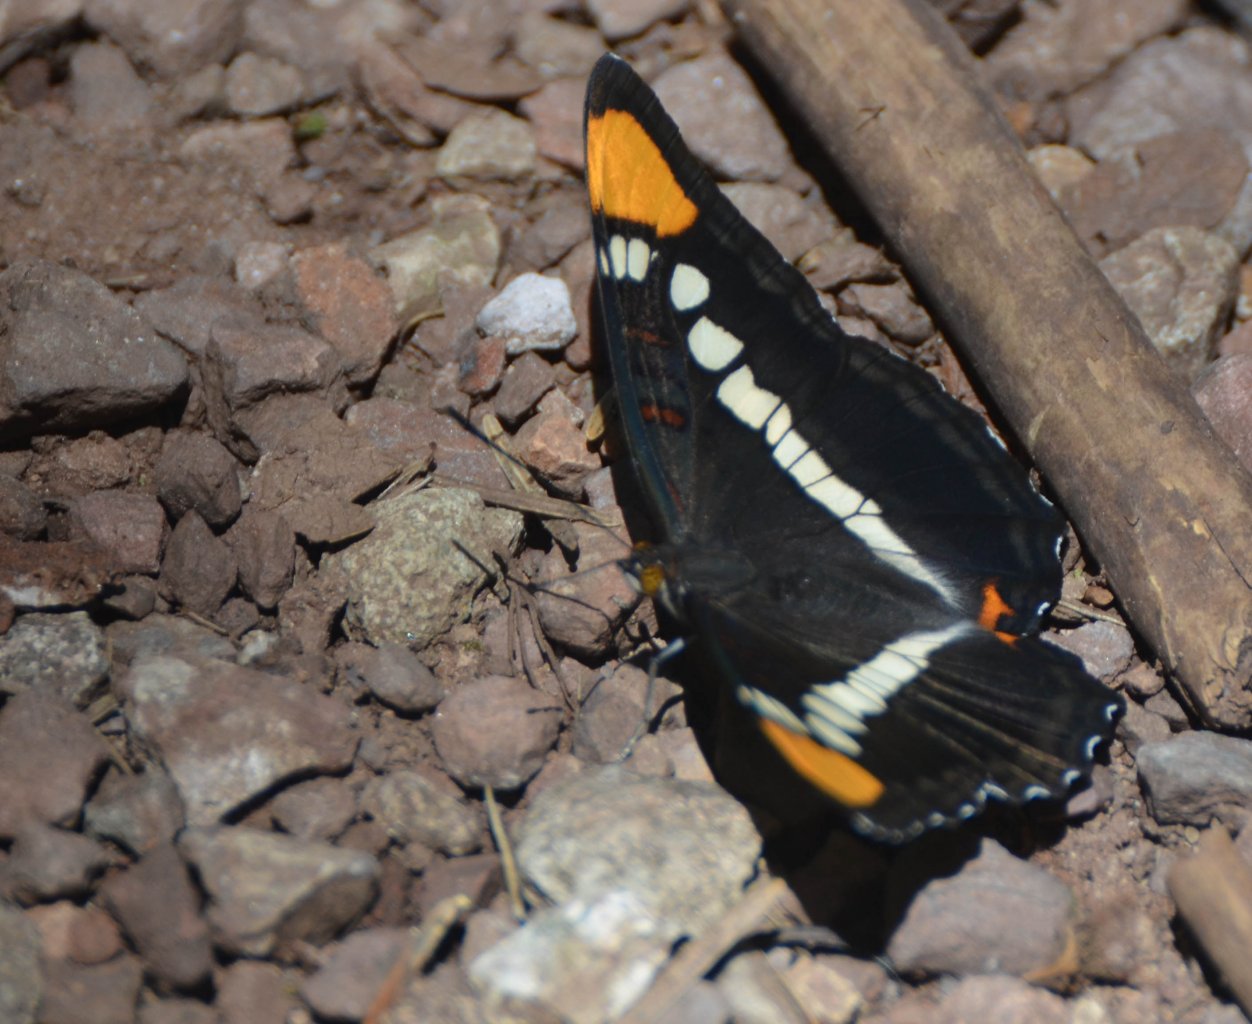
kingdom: Animalia
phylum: Arthropoda
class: Insecta
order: Lepidoptera
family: Nymphalidae
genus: Limenitis
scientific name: Limenitis bredowii
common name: Arizona Sister
